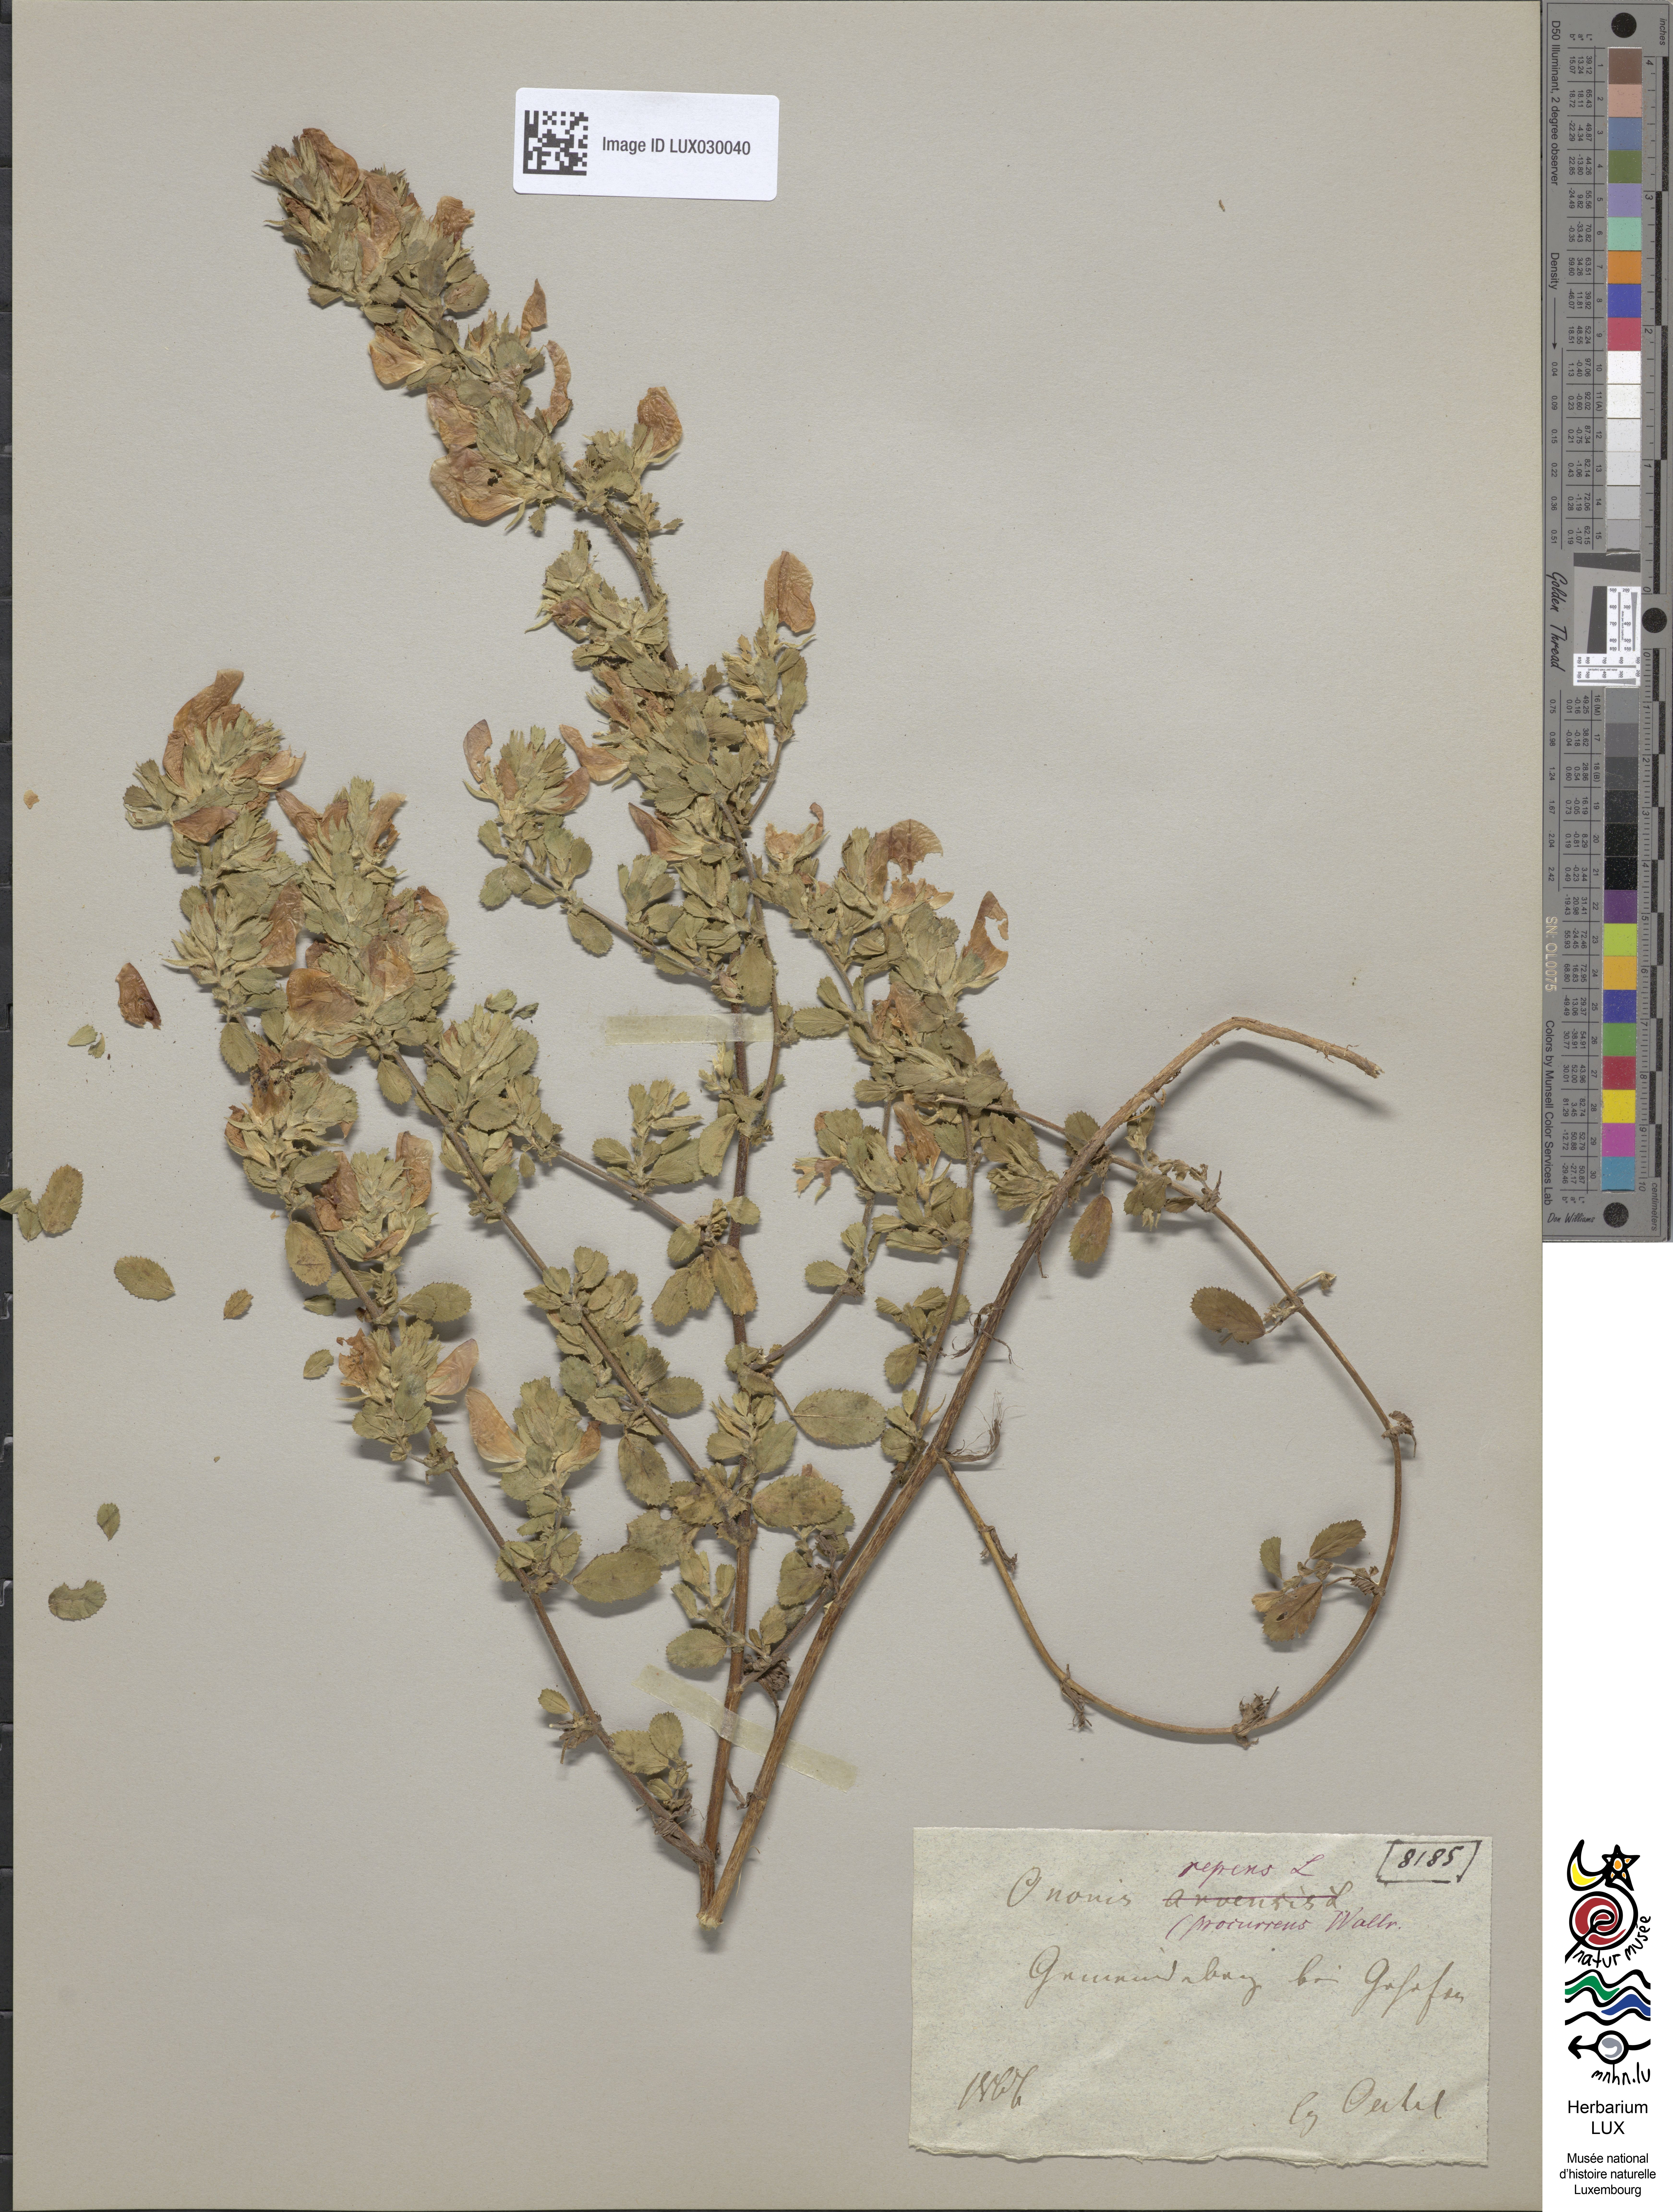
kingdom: Plantae
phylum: Tracheophyta
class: Magnoliopsida
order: Fabales
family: Fabaceae
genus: Ononis
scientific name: Ononis spinosa
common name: Spiny restharrow
